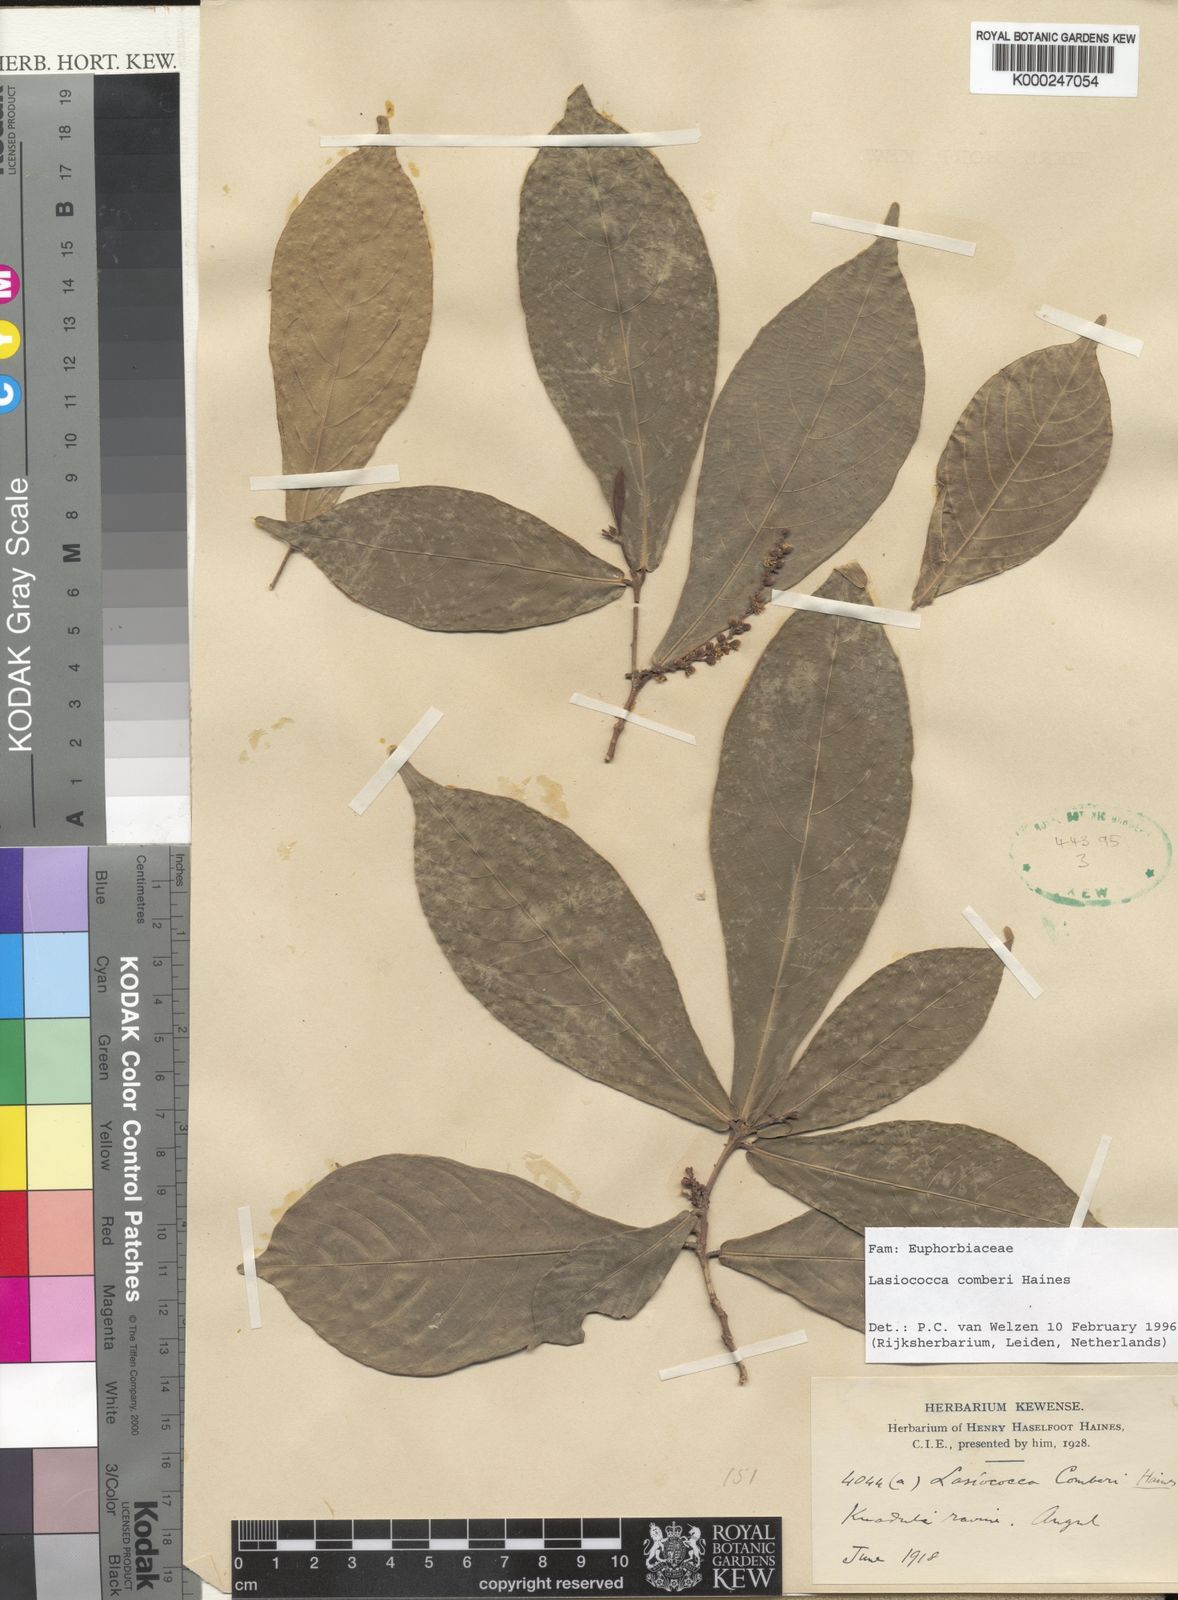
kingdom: Plantae
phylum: Tracheophyta
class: Magnoliopsida
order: Malpighiales
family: Euphorbiaceae
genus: Lasiococca
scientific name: Lasiococca comberi
